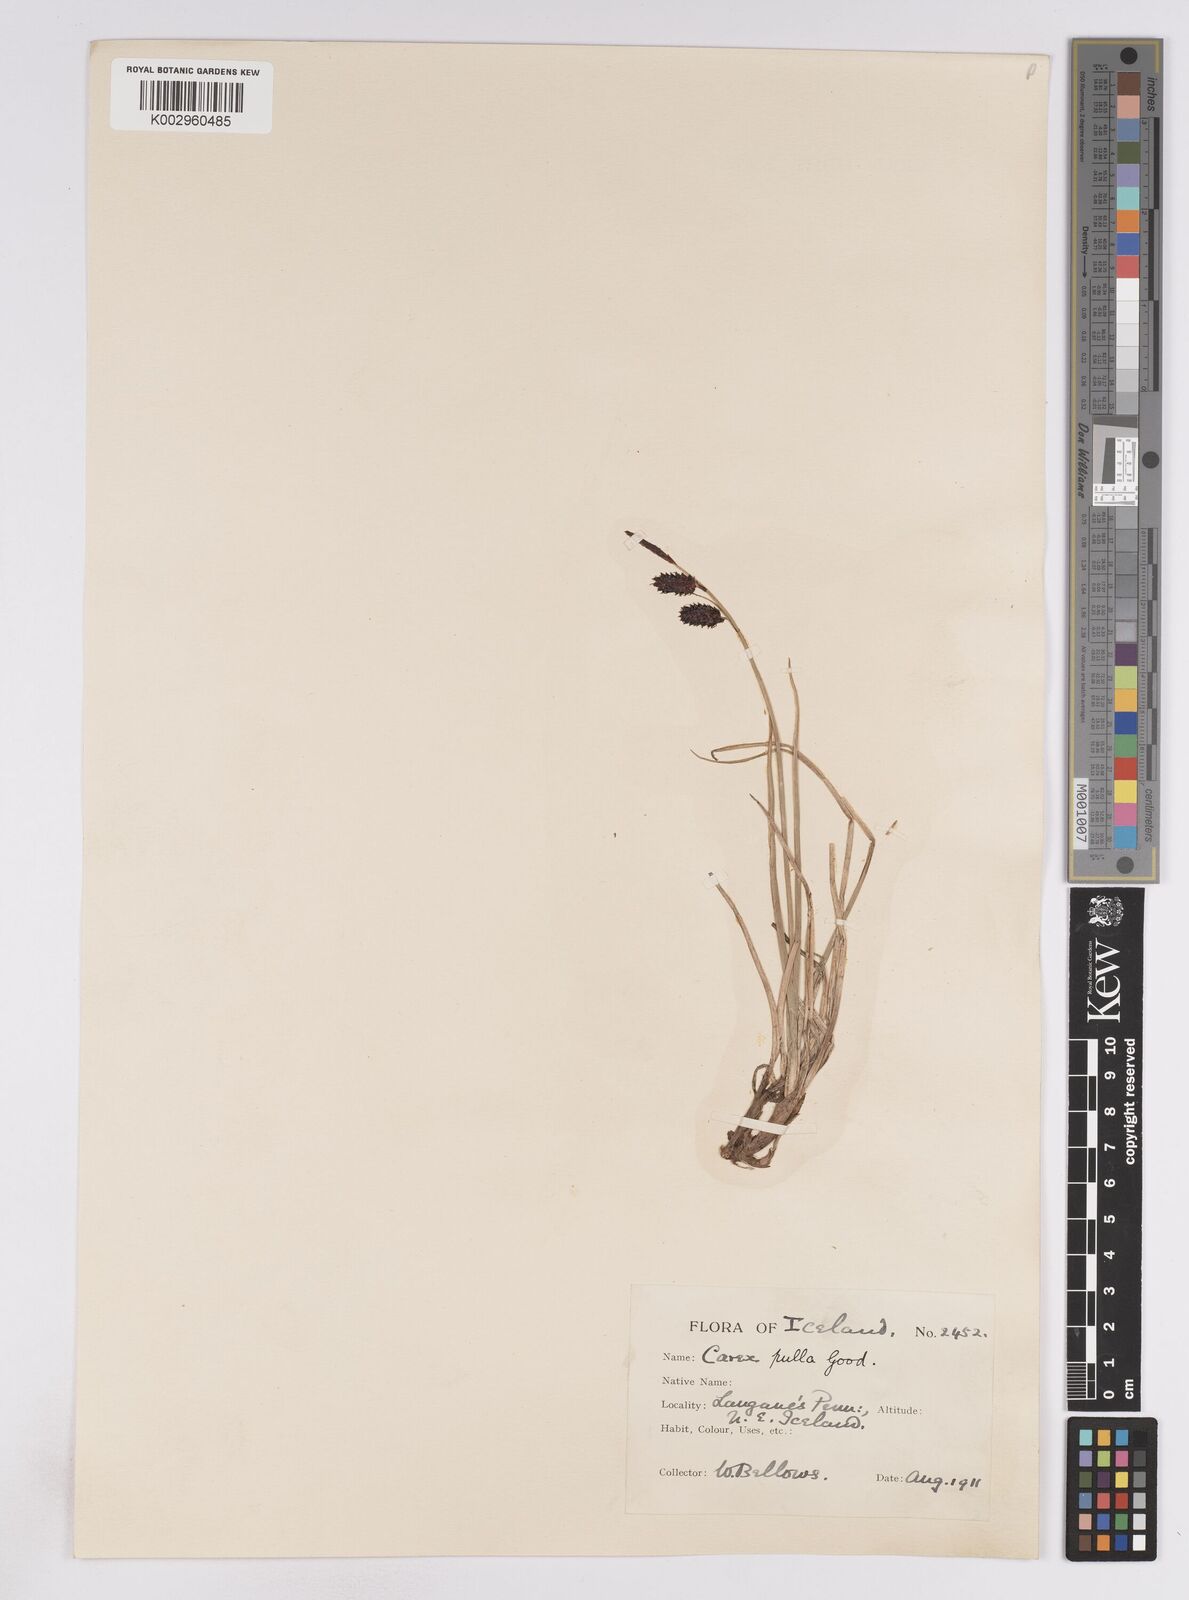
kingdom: Plantae
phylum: Tracheophyta
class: Liliopsida
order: Poales
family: Cyperaceae
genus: Carex
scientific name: Carex saxatilis
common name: Russet sedge
